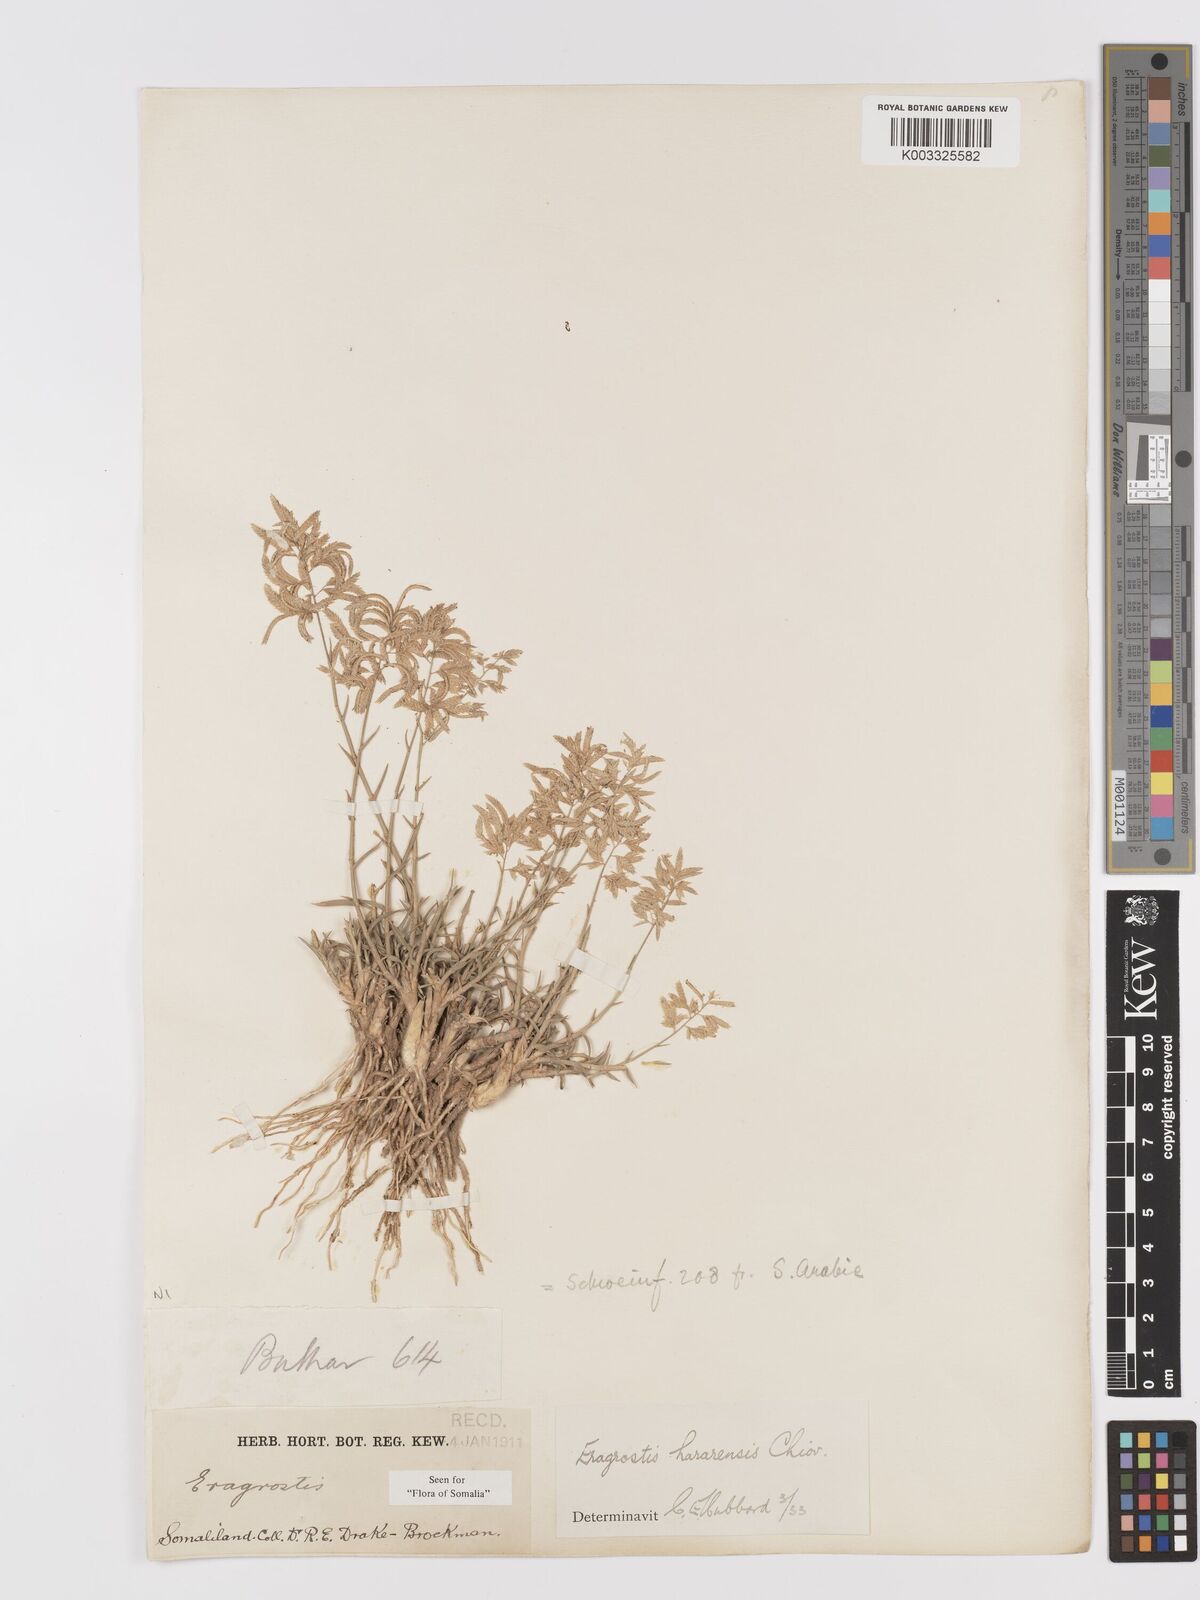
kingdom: Plantae
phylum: Tracheophyta
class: Liliopsida
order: Poales
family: Poaceae
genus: Eragrostis
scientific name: Eragrostis mahrana
